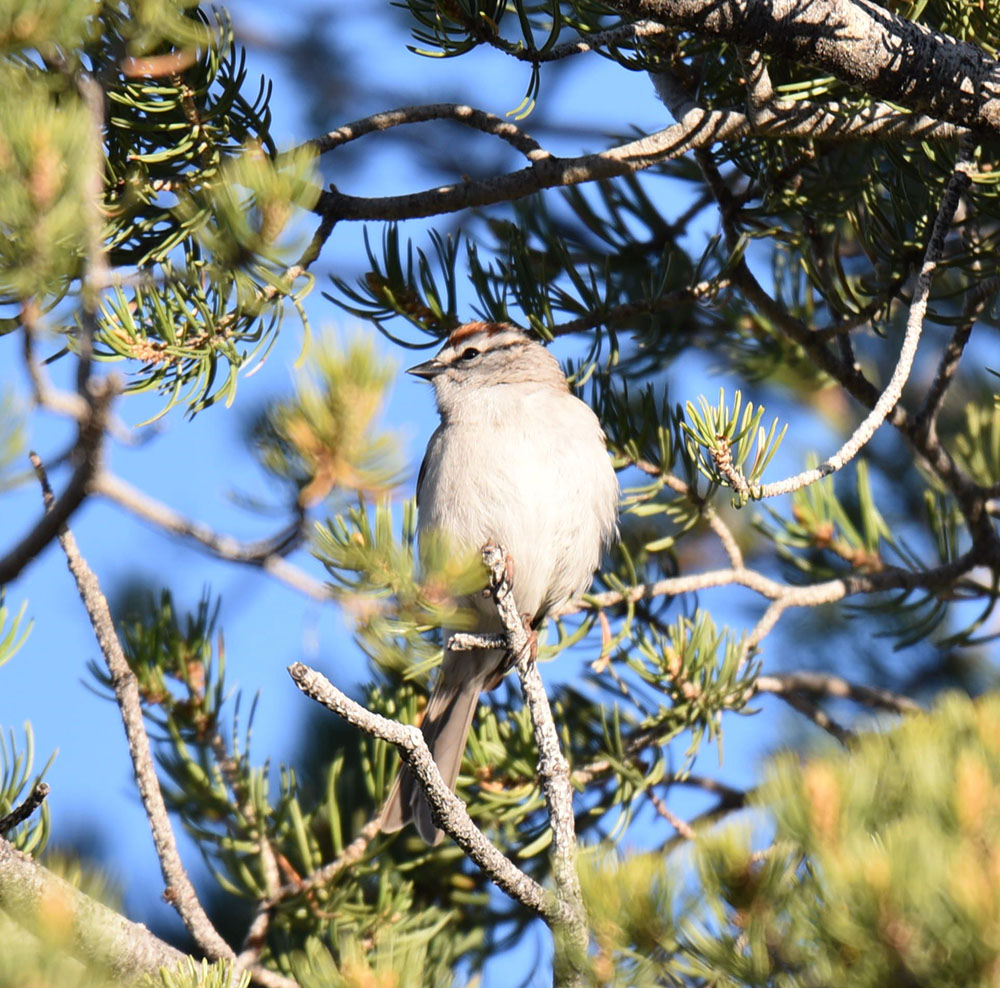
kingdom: Animalia
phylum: Chordata
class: Aves
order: Passeriformes
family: Passerellidae
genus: Spizella
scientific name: Spizella passerina
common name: Chipping sparrow
